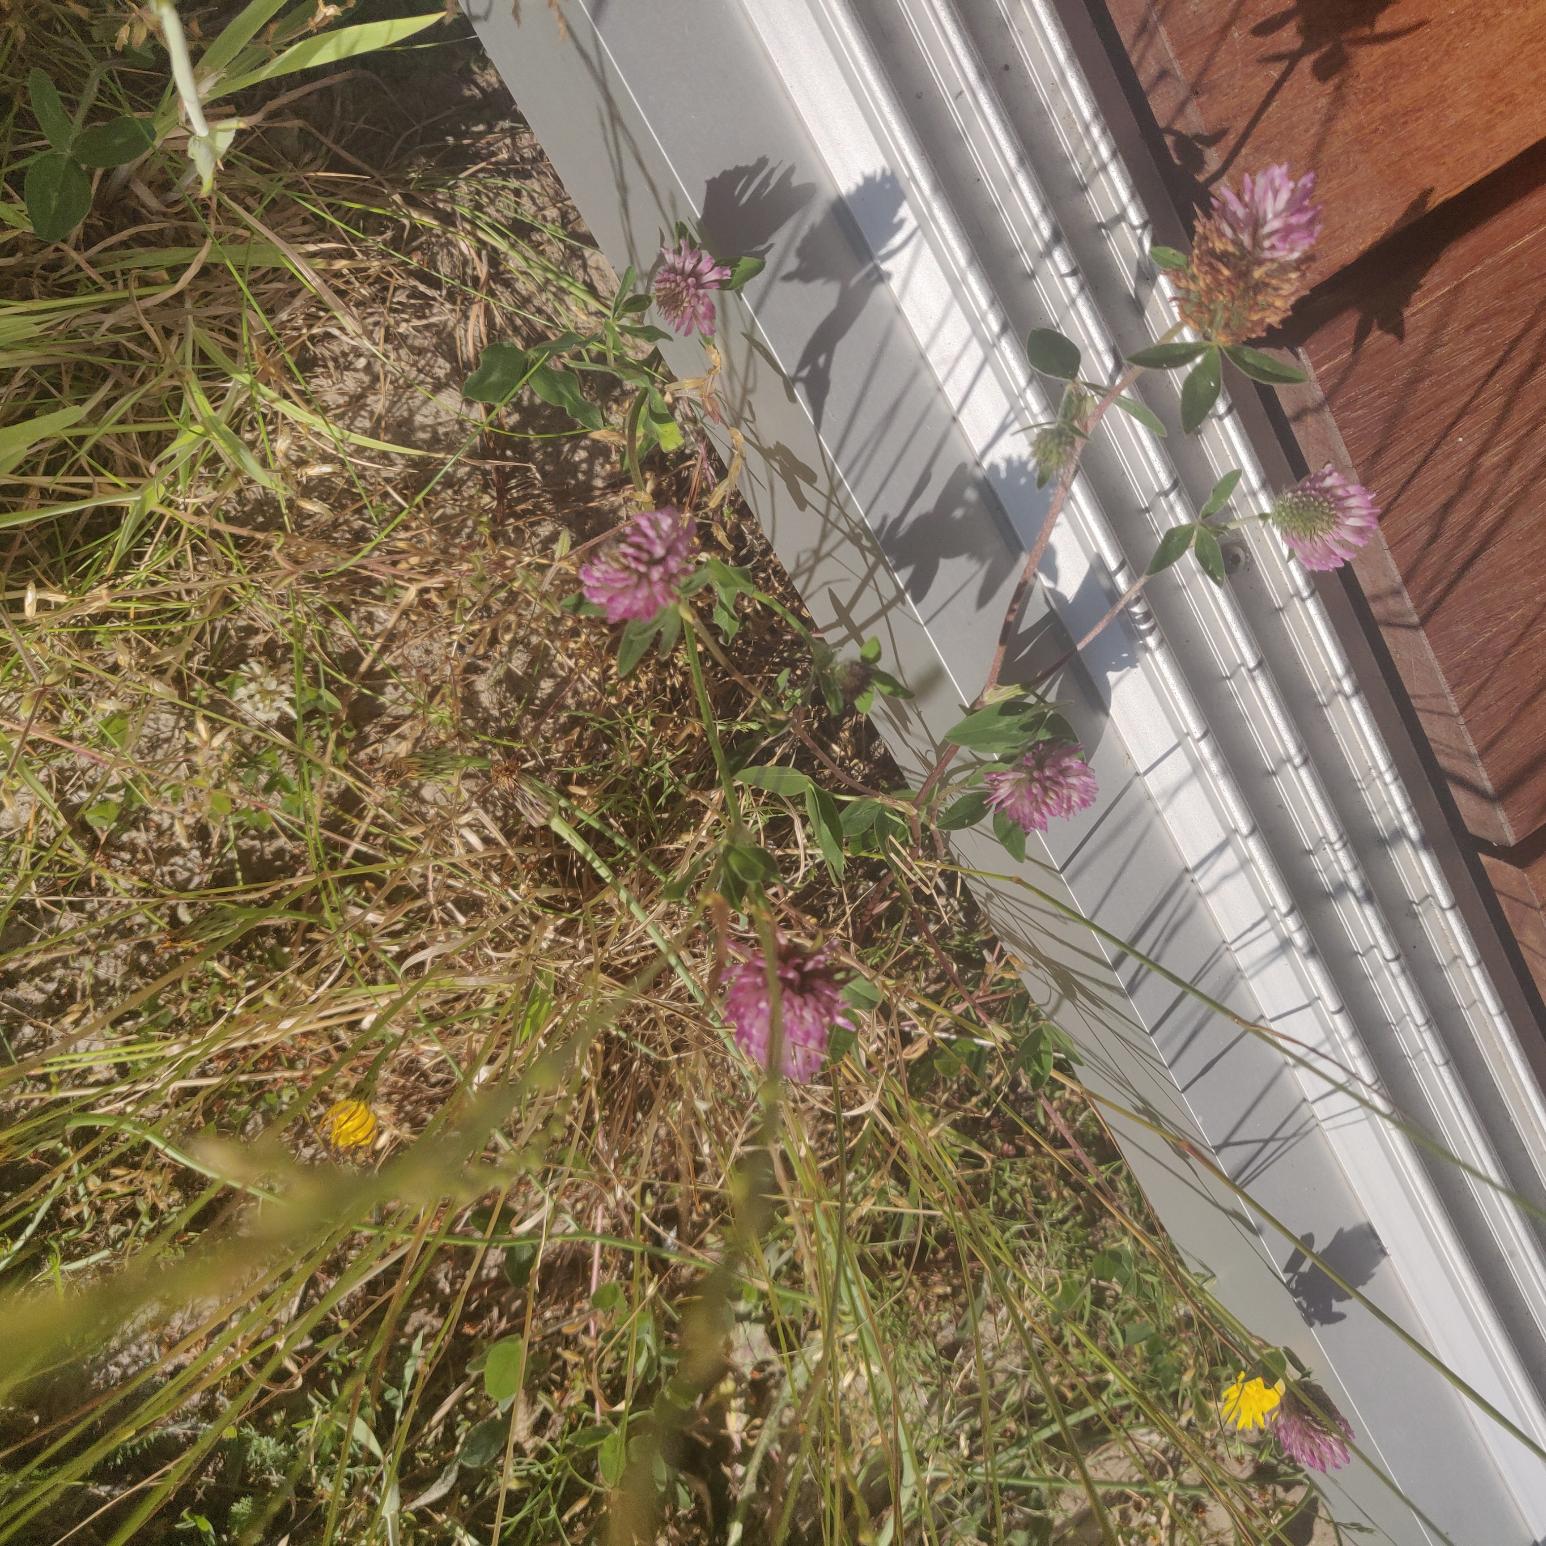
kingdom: Plantae
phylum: Tracheophyta
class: Magnoliopsida
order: Brassicales
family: Brassicaceae
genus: Cakile
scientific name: Cakile maritima
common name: Strandsennep
